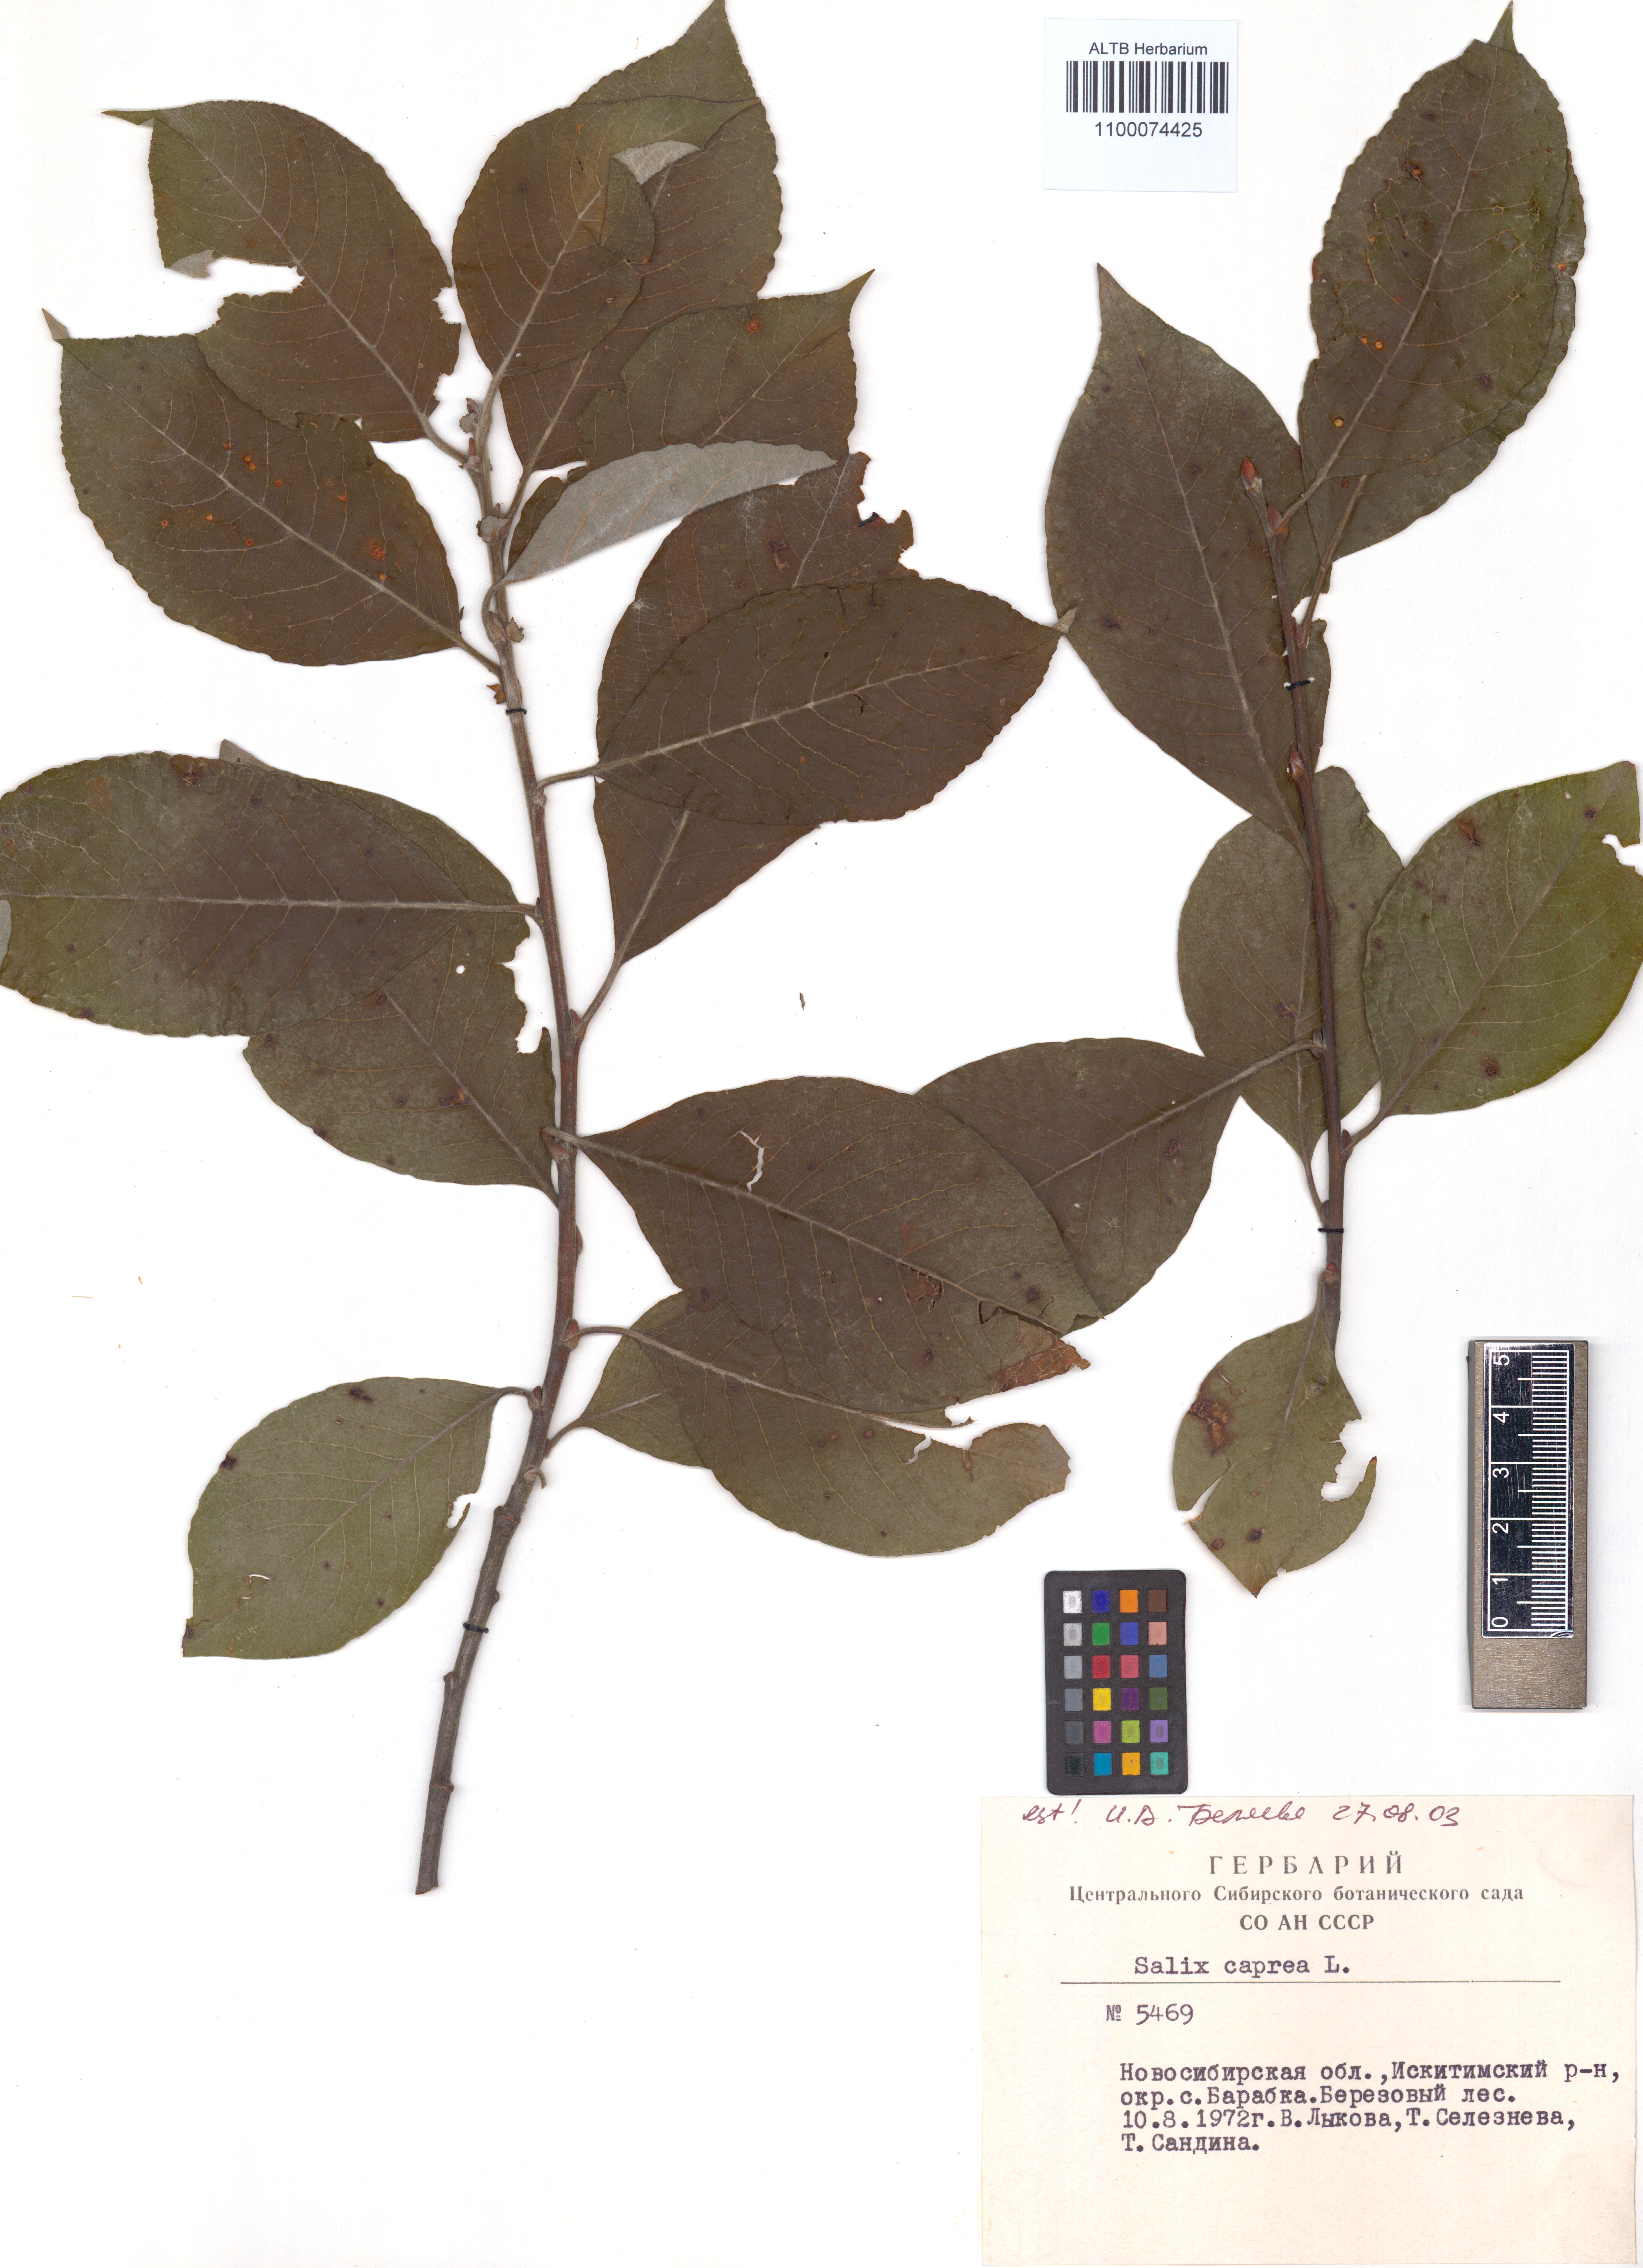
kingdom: Plantae
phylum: Tracheophyta
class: Magnoliopsida
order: Malpighiales
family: Salicaceae
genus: Salix
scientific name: Salix caprea
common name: Goat willow
